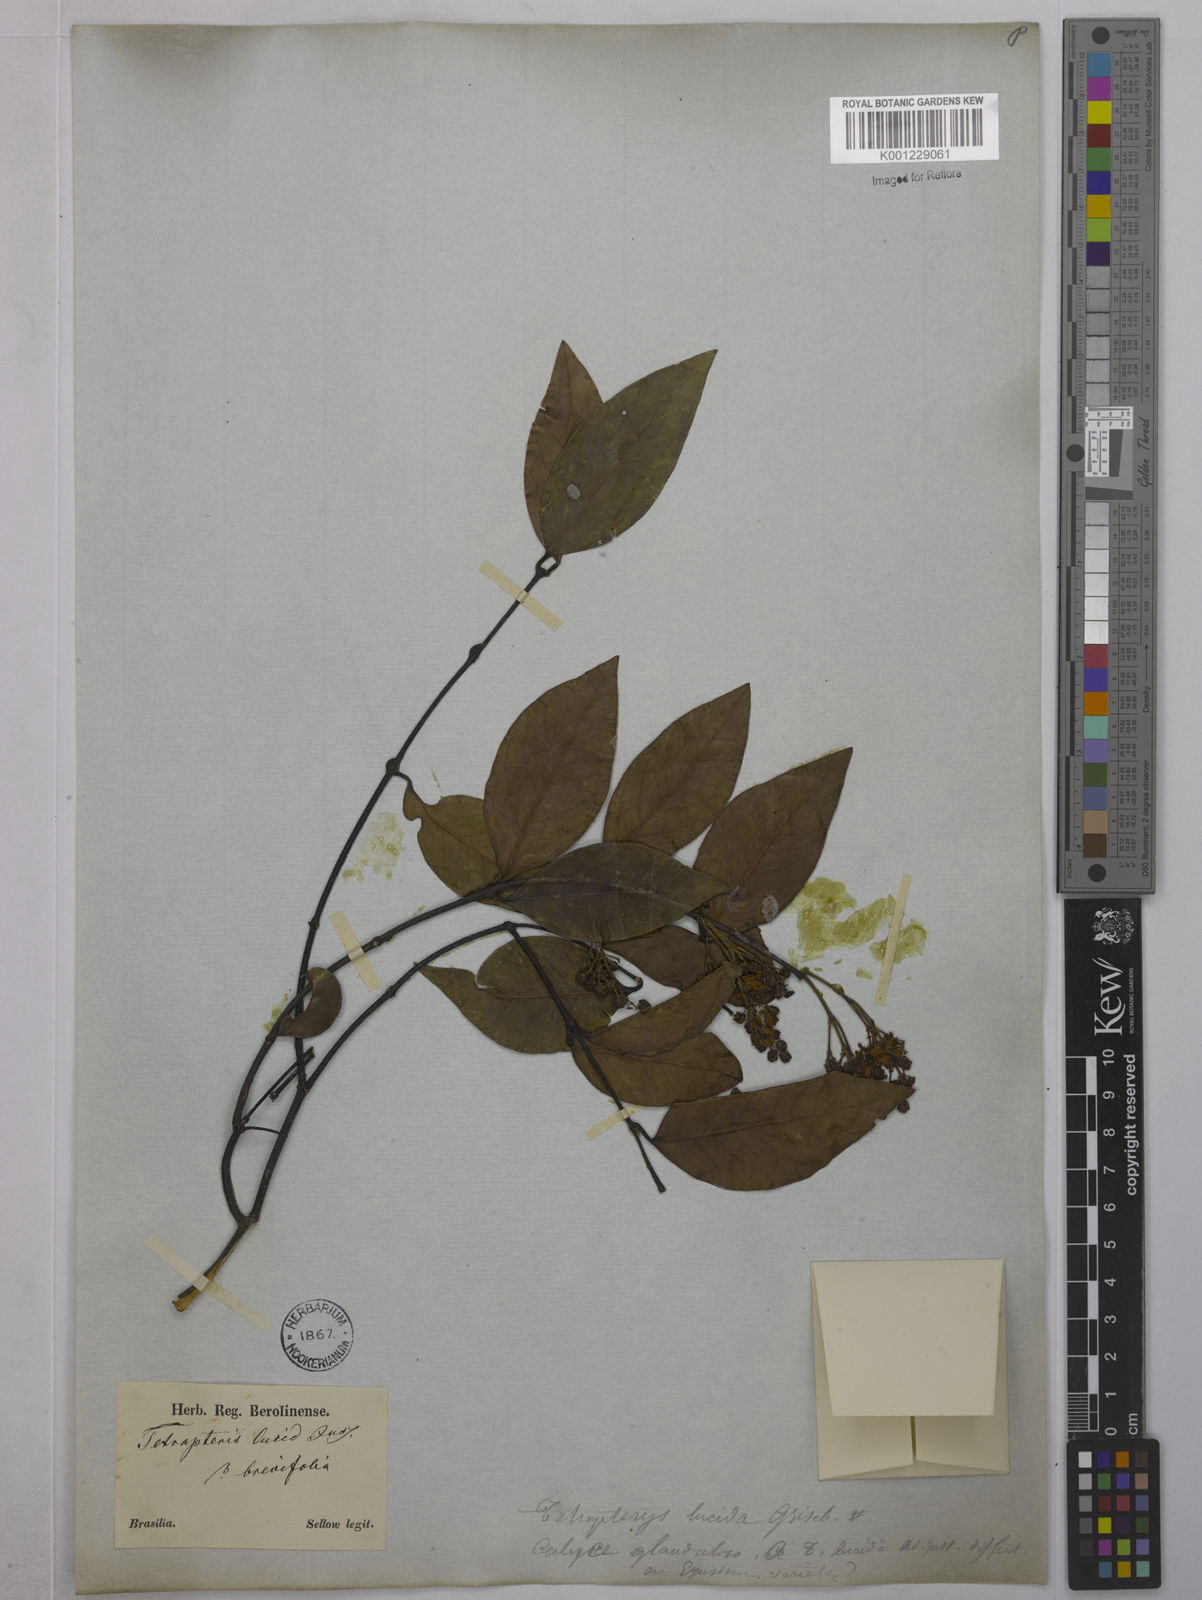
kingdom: Plantae
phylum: Tracheophyta
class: Magnoliopsida
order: Malpighiales
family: Malpighiaceae
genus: Niedenzuella
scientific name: Niedenzuella lucida
